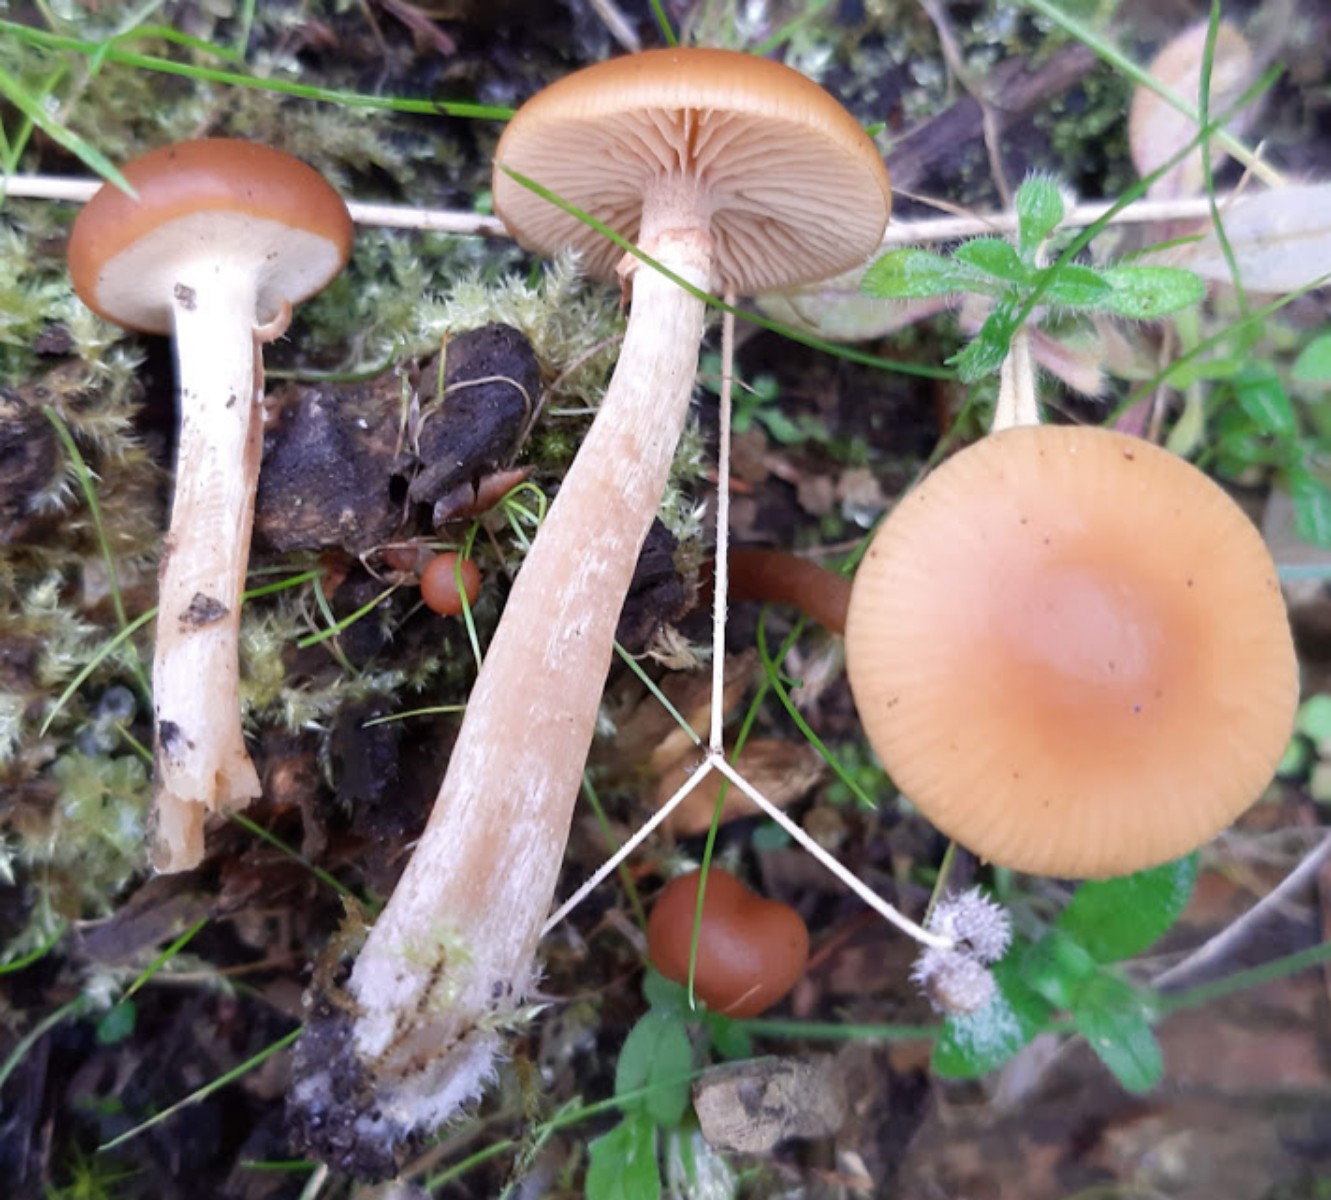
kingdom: Fungi
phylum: Basidiomycota
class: Agaricomycetes
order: Agaricales
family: Hymenogastraceae
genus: Galerina
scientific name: Galerina marginata
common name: randbæltet hjelmhat
